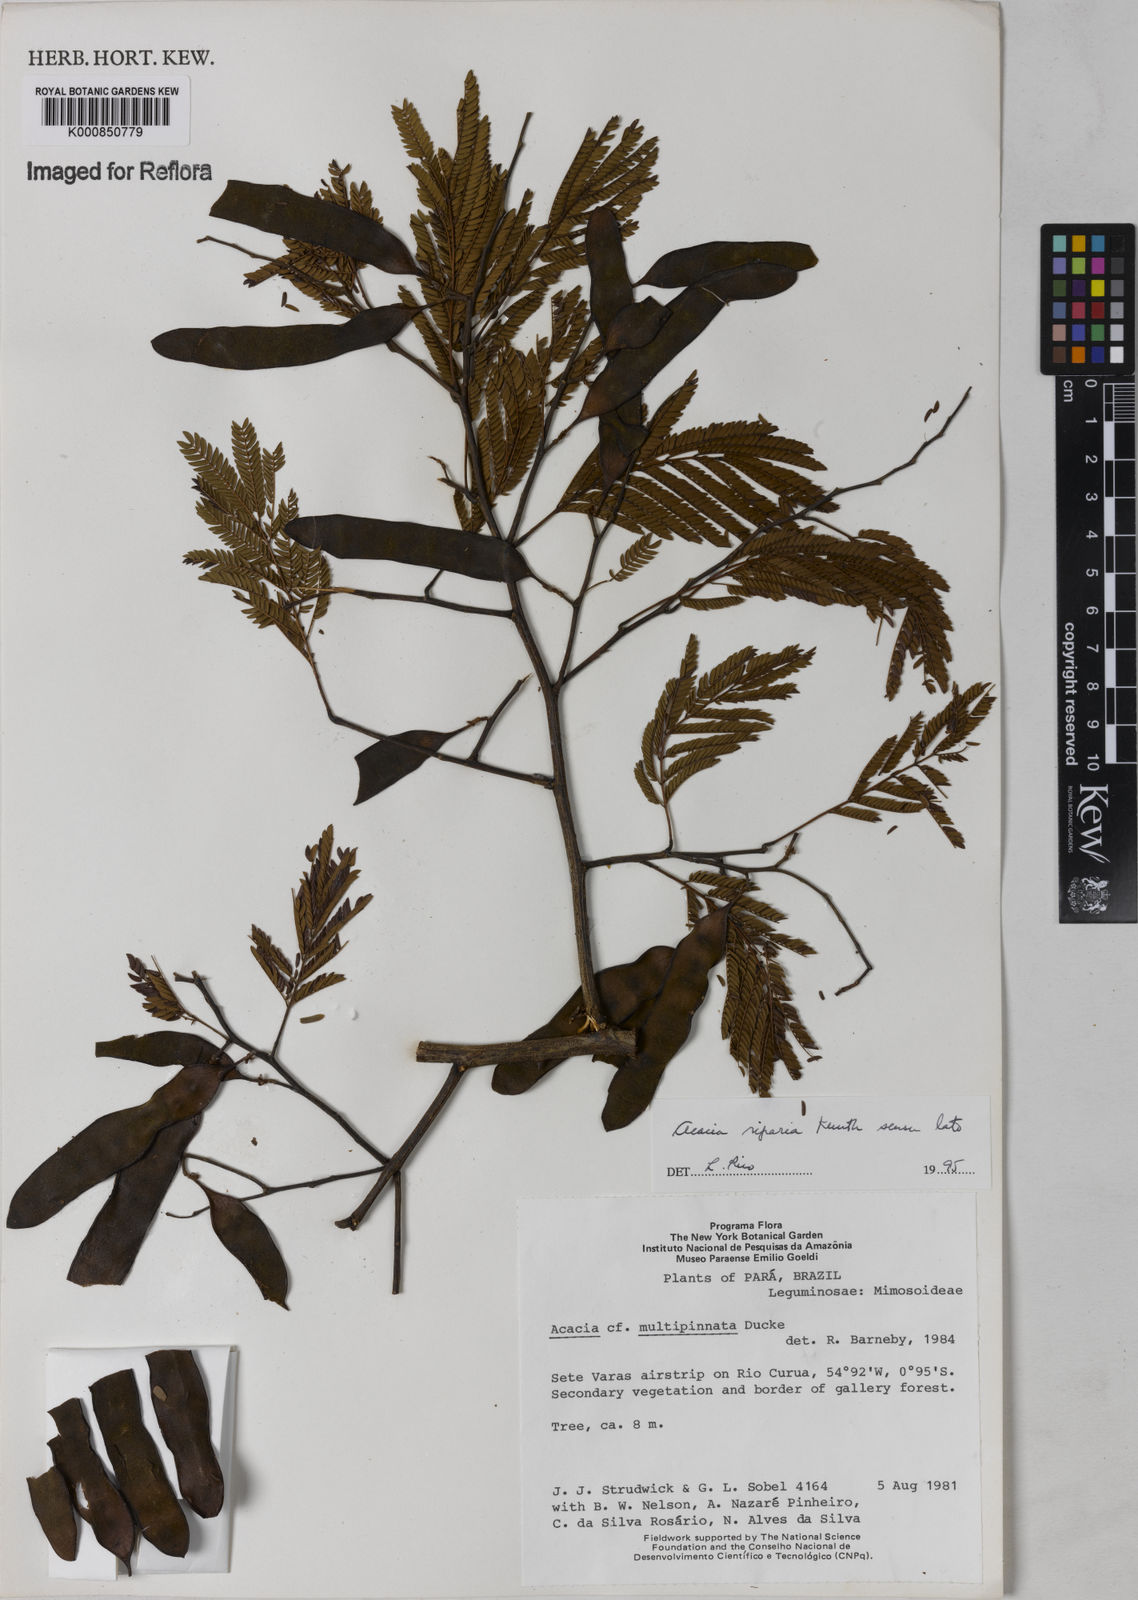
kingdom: Plantae
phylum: Tracheophyta
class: Magnoliopsida
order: Fabales
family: Fabaceae
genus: Senegalia
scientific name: Senegalia riparia
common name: Catch-and-keep
